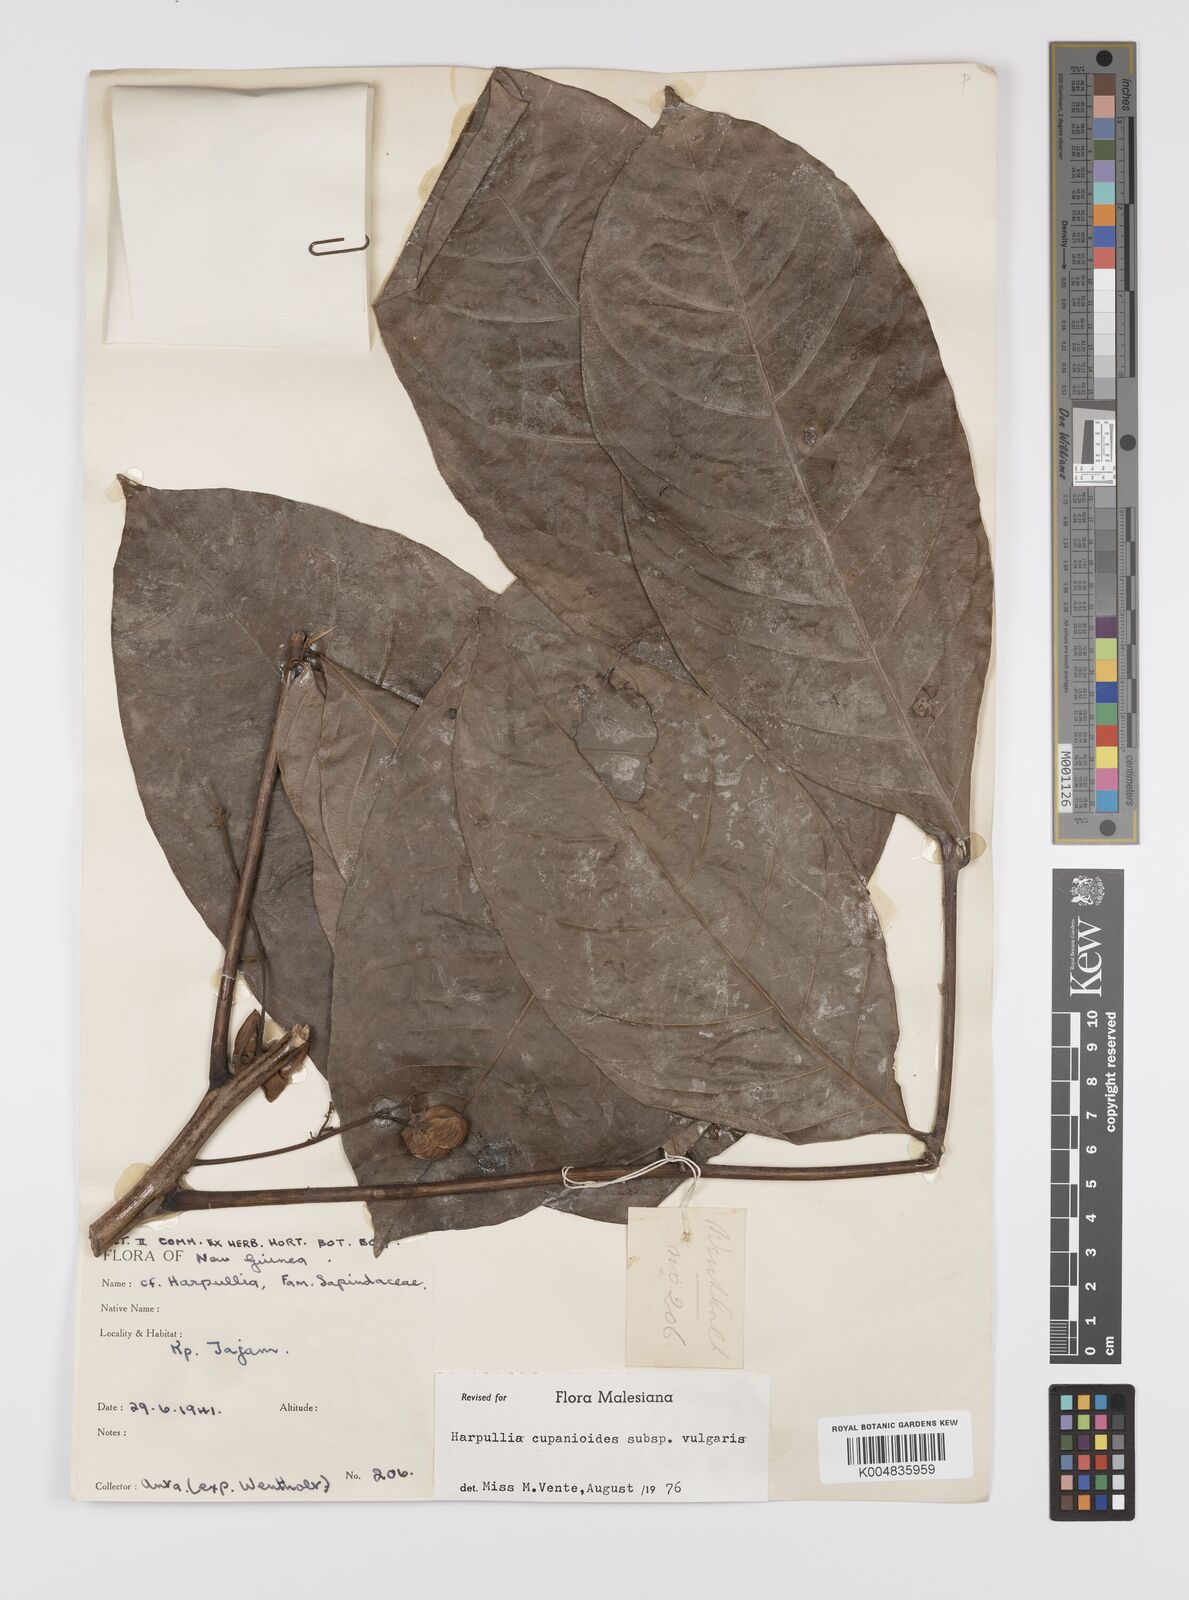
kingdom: Plantae
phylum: Tracheophyta
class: Magnoliopsida
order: Sapindales
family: Sapindaceae
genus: Harpullia
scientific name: Harpullia cupanioides
